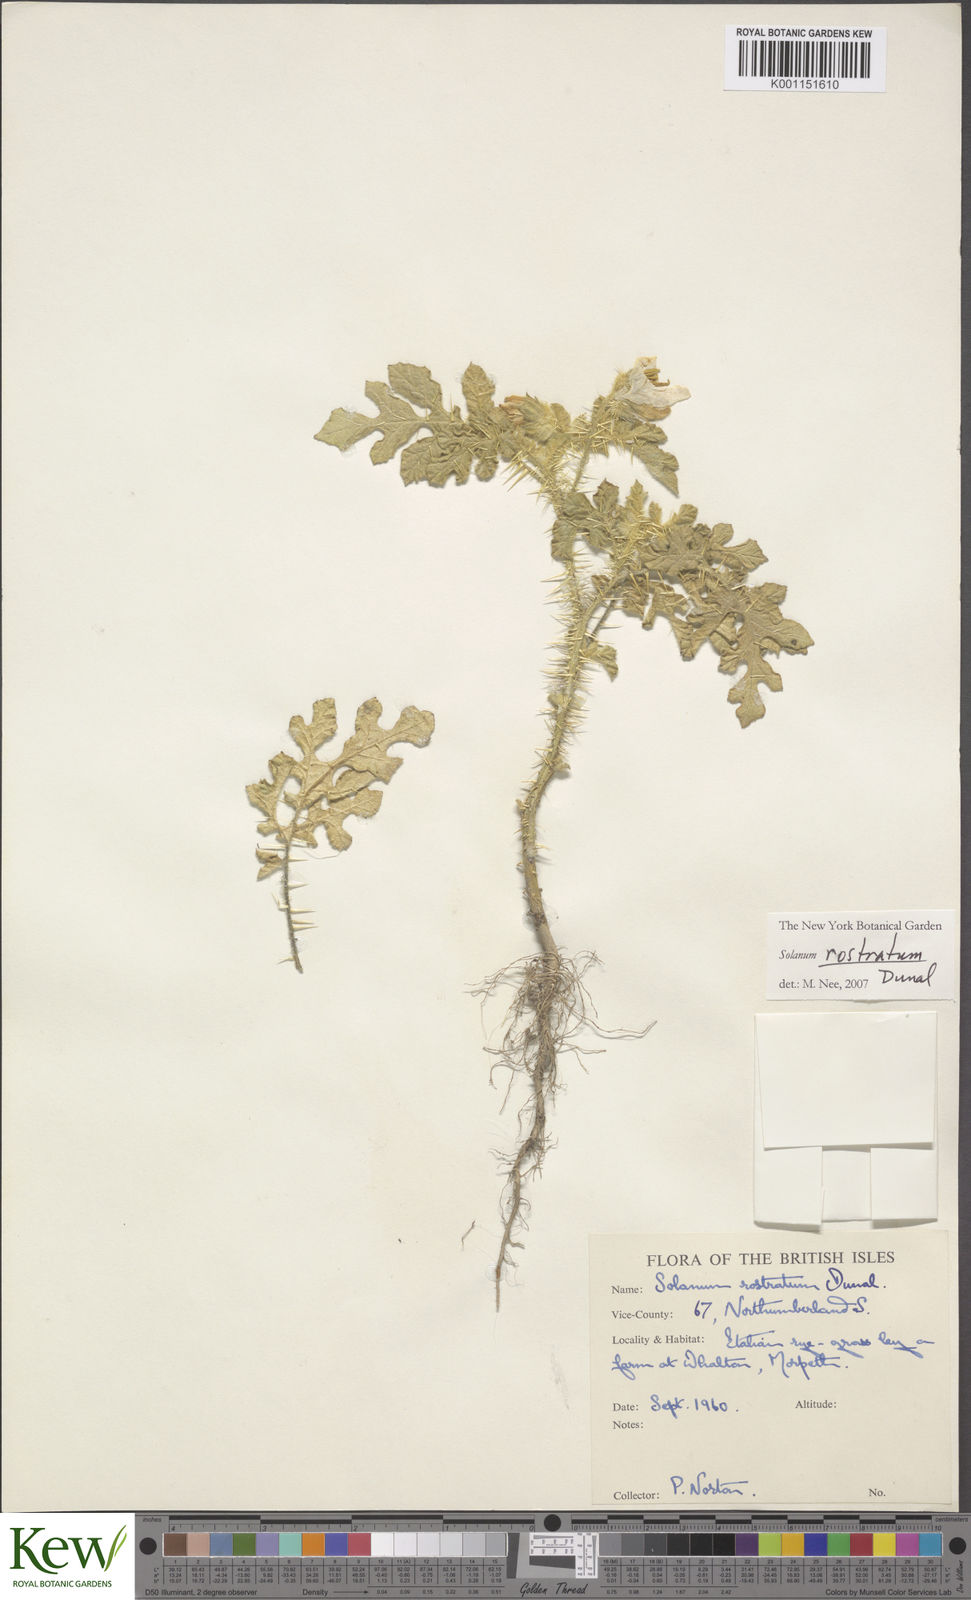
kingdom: Plantae
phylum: Tracheophyta
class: Magnoliopsida
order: Solanales
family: Solanaceae
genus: Solanum
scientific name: Solanum angustifolium
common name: Buffalobur nightshade
